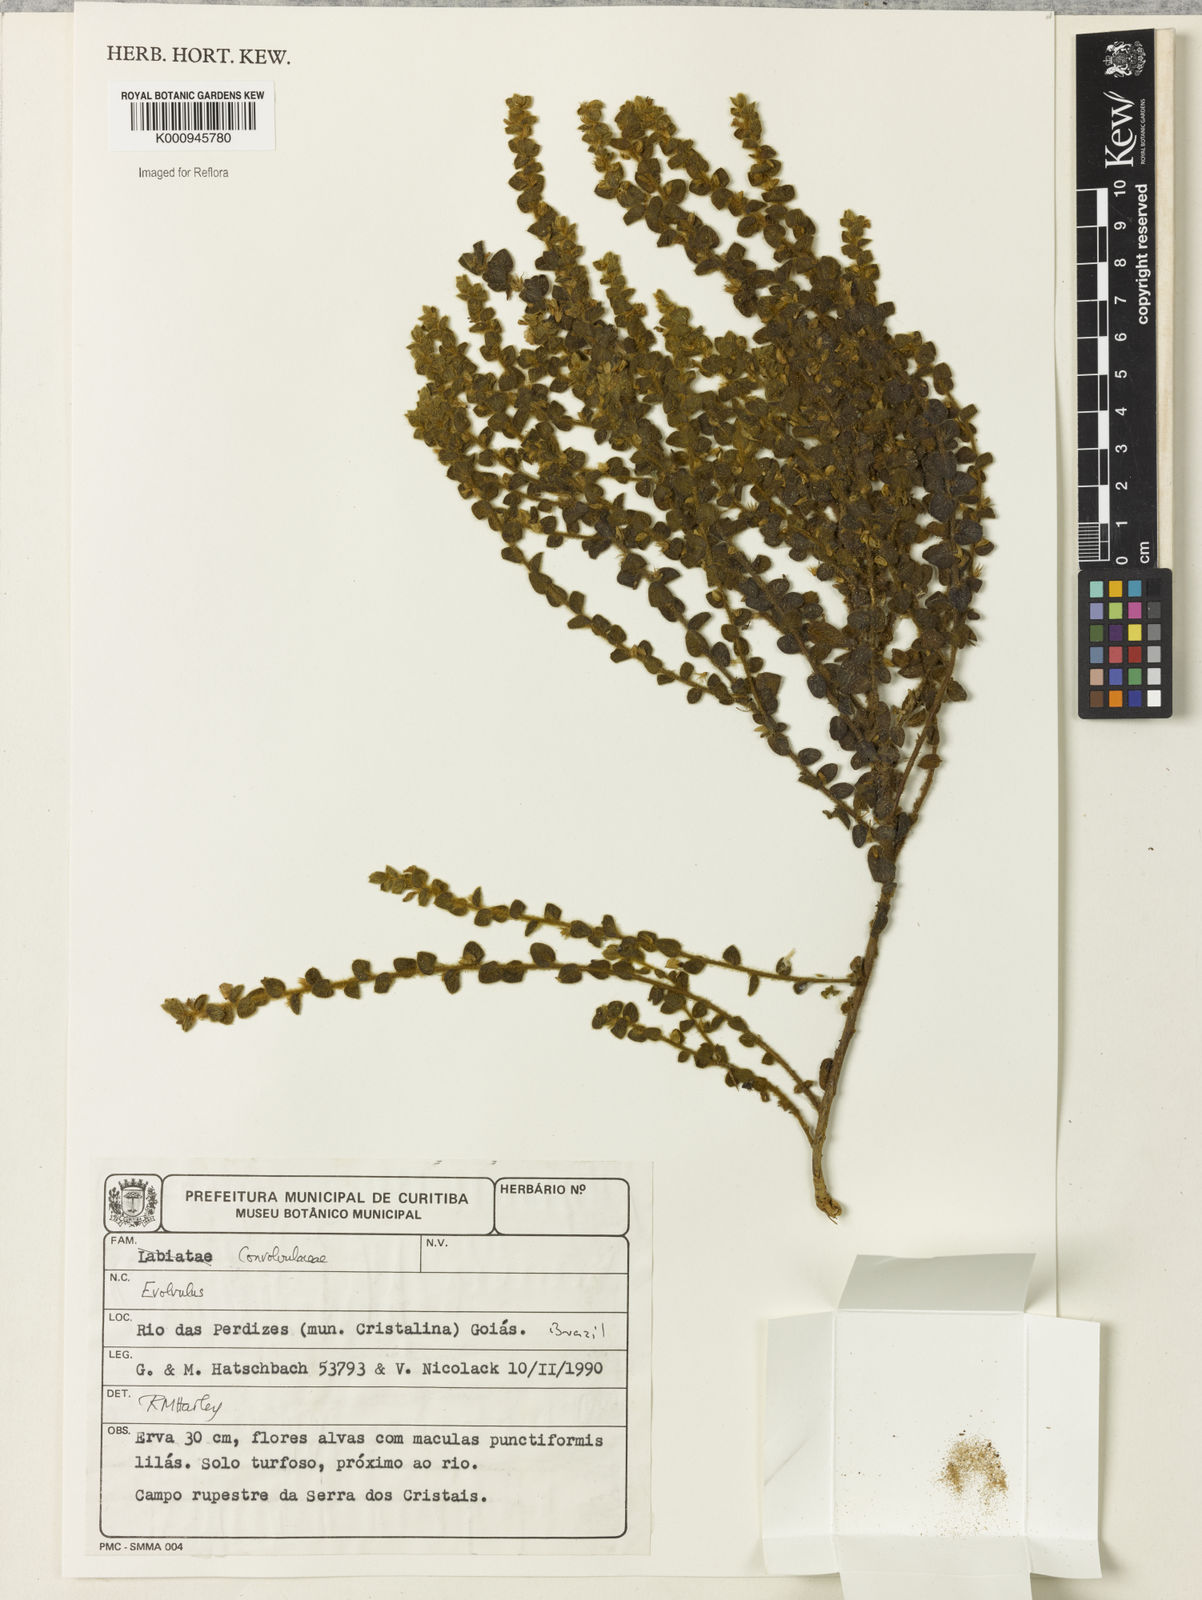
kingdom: Plantae
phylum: Tracheophyta
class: Magnoliopsida
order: Solanales
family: Convolvulaceae
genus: Evolvulus
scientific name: Evolvulus
